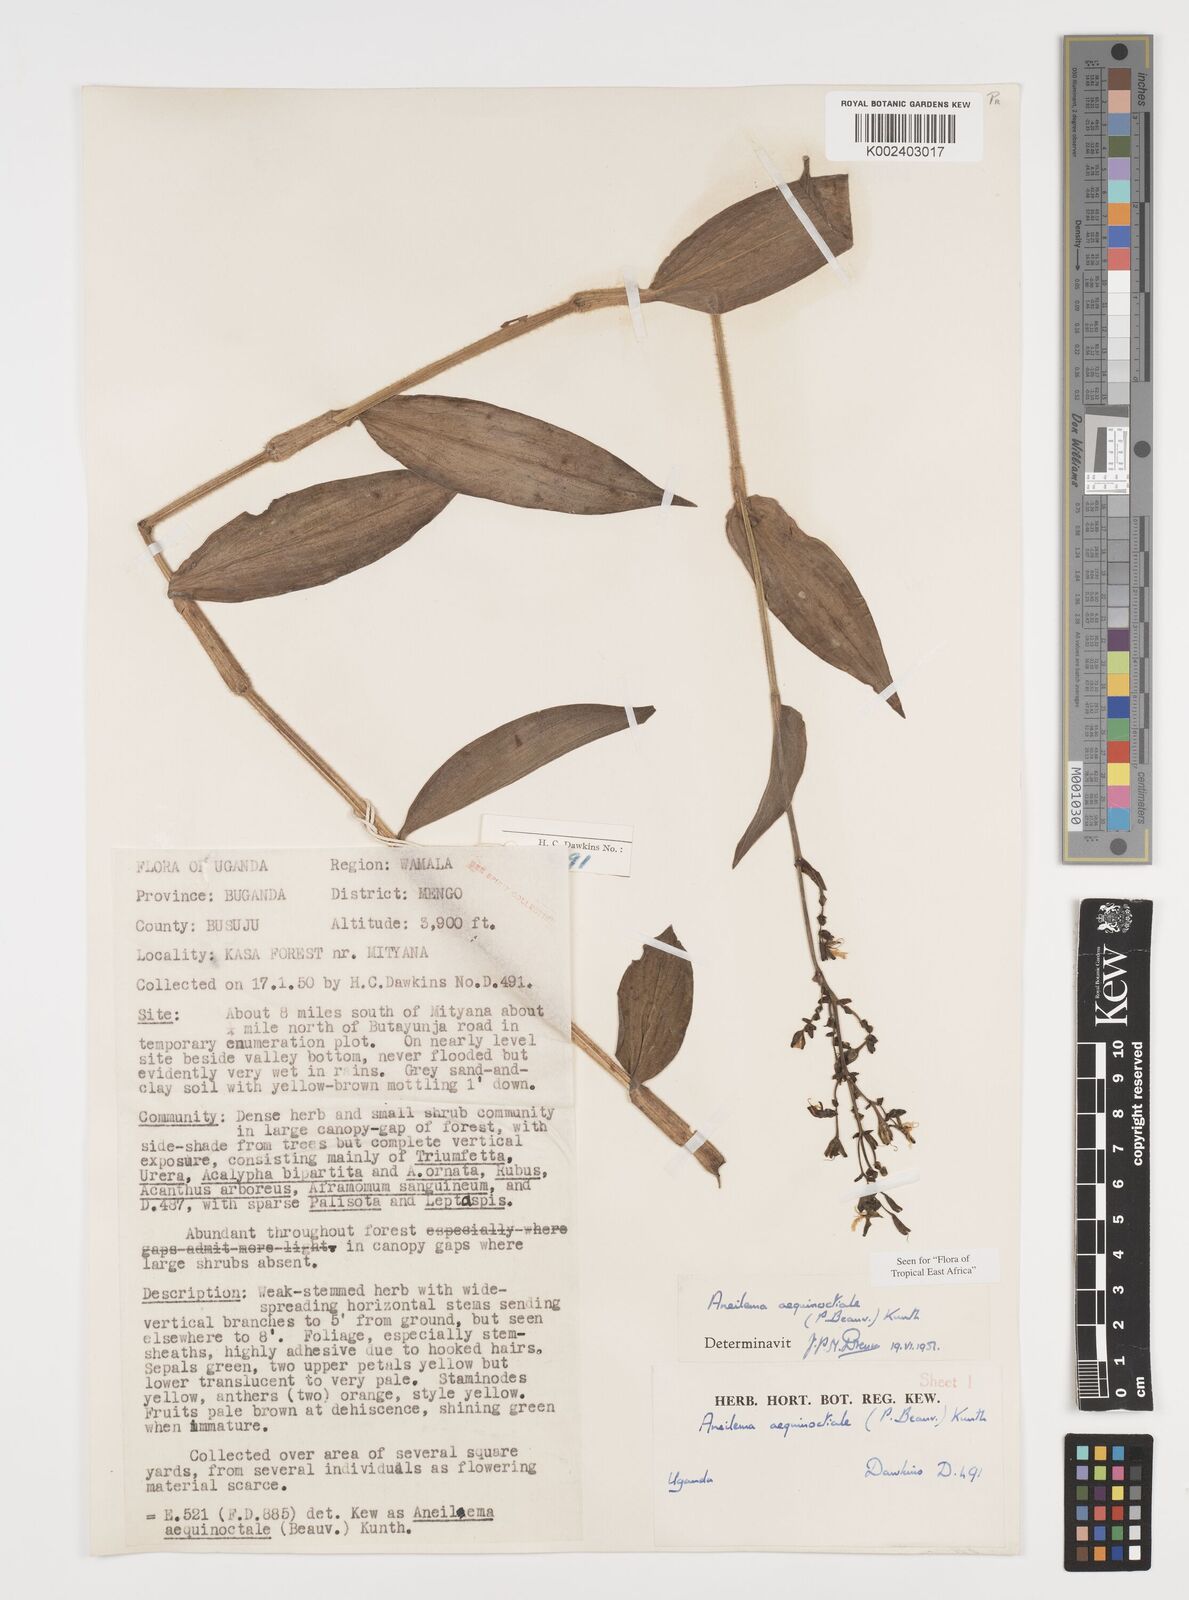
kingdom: Plantae
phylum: Tracheophyta
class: Liliopsida
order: Commelinales
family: Commelinaceae
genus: Aneilema
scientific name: Aneilema aequinoctiale
